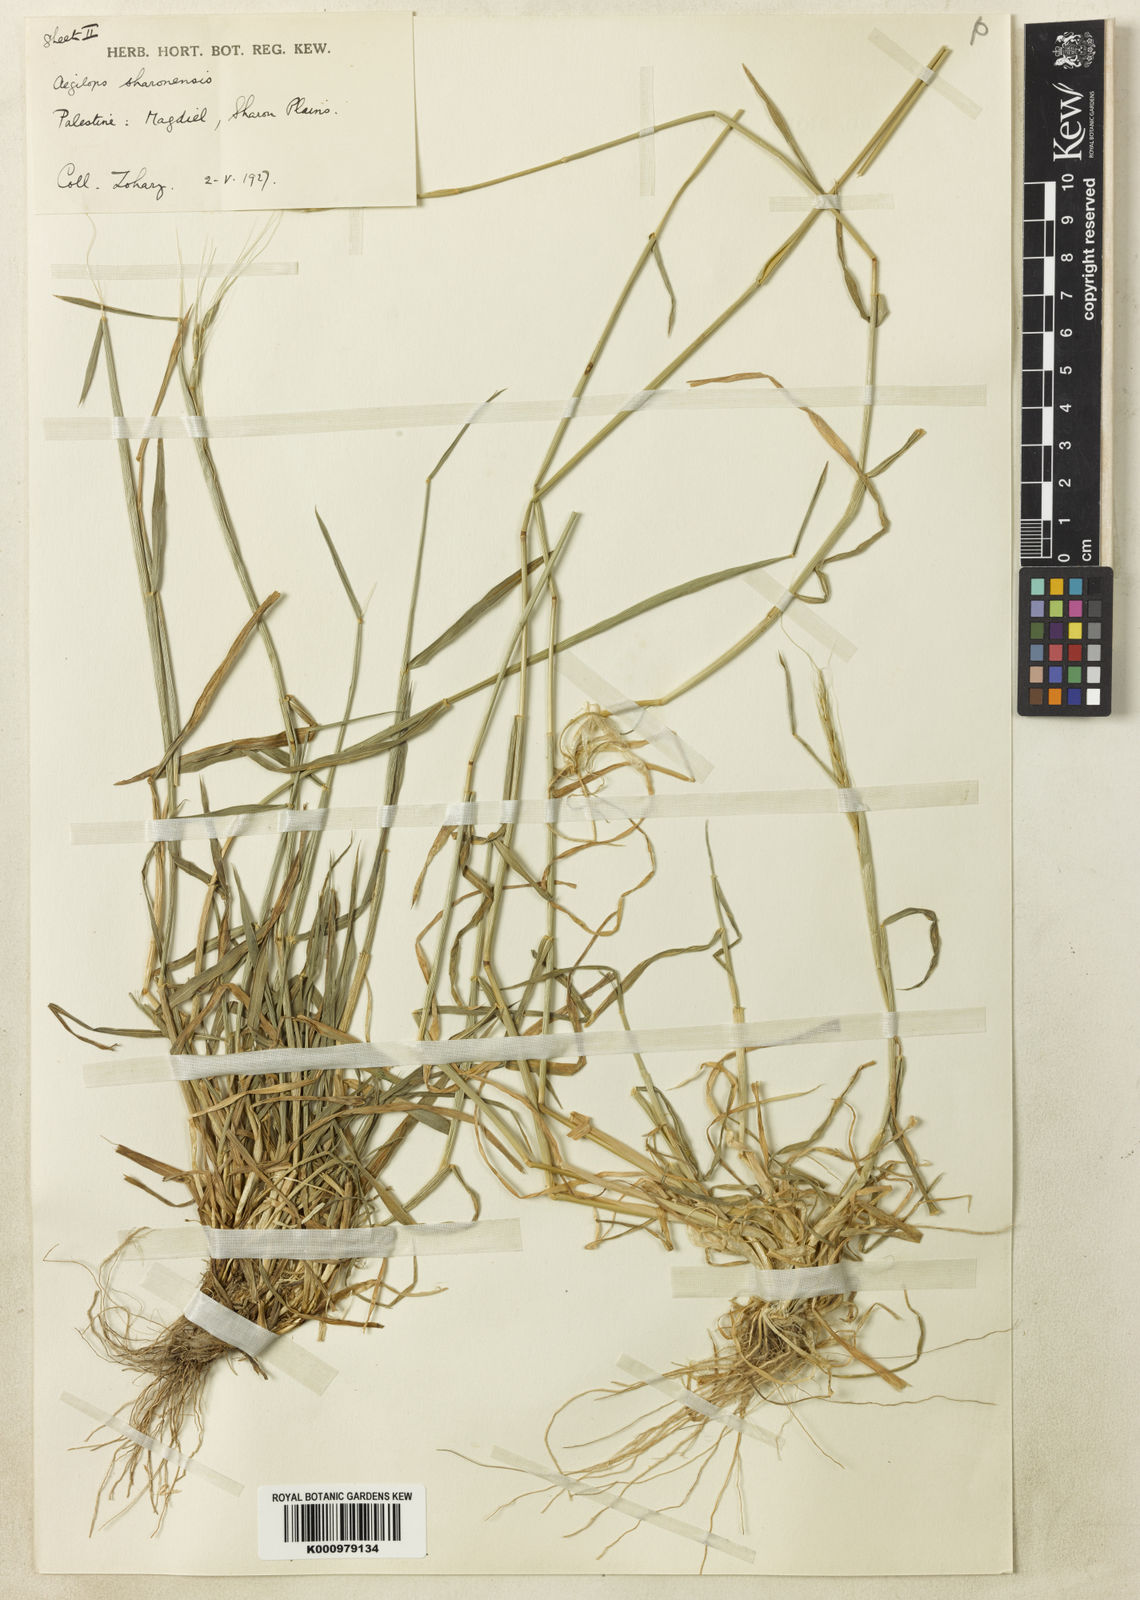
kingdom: Plantae
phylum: Tracheophyta
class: Liliopsida
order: Poales
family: Poaceae
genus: Aegilops
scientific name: Aegilops sharonensis
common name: Sharon goatgrass
